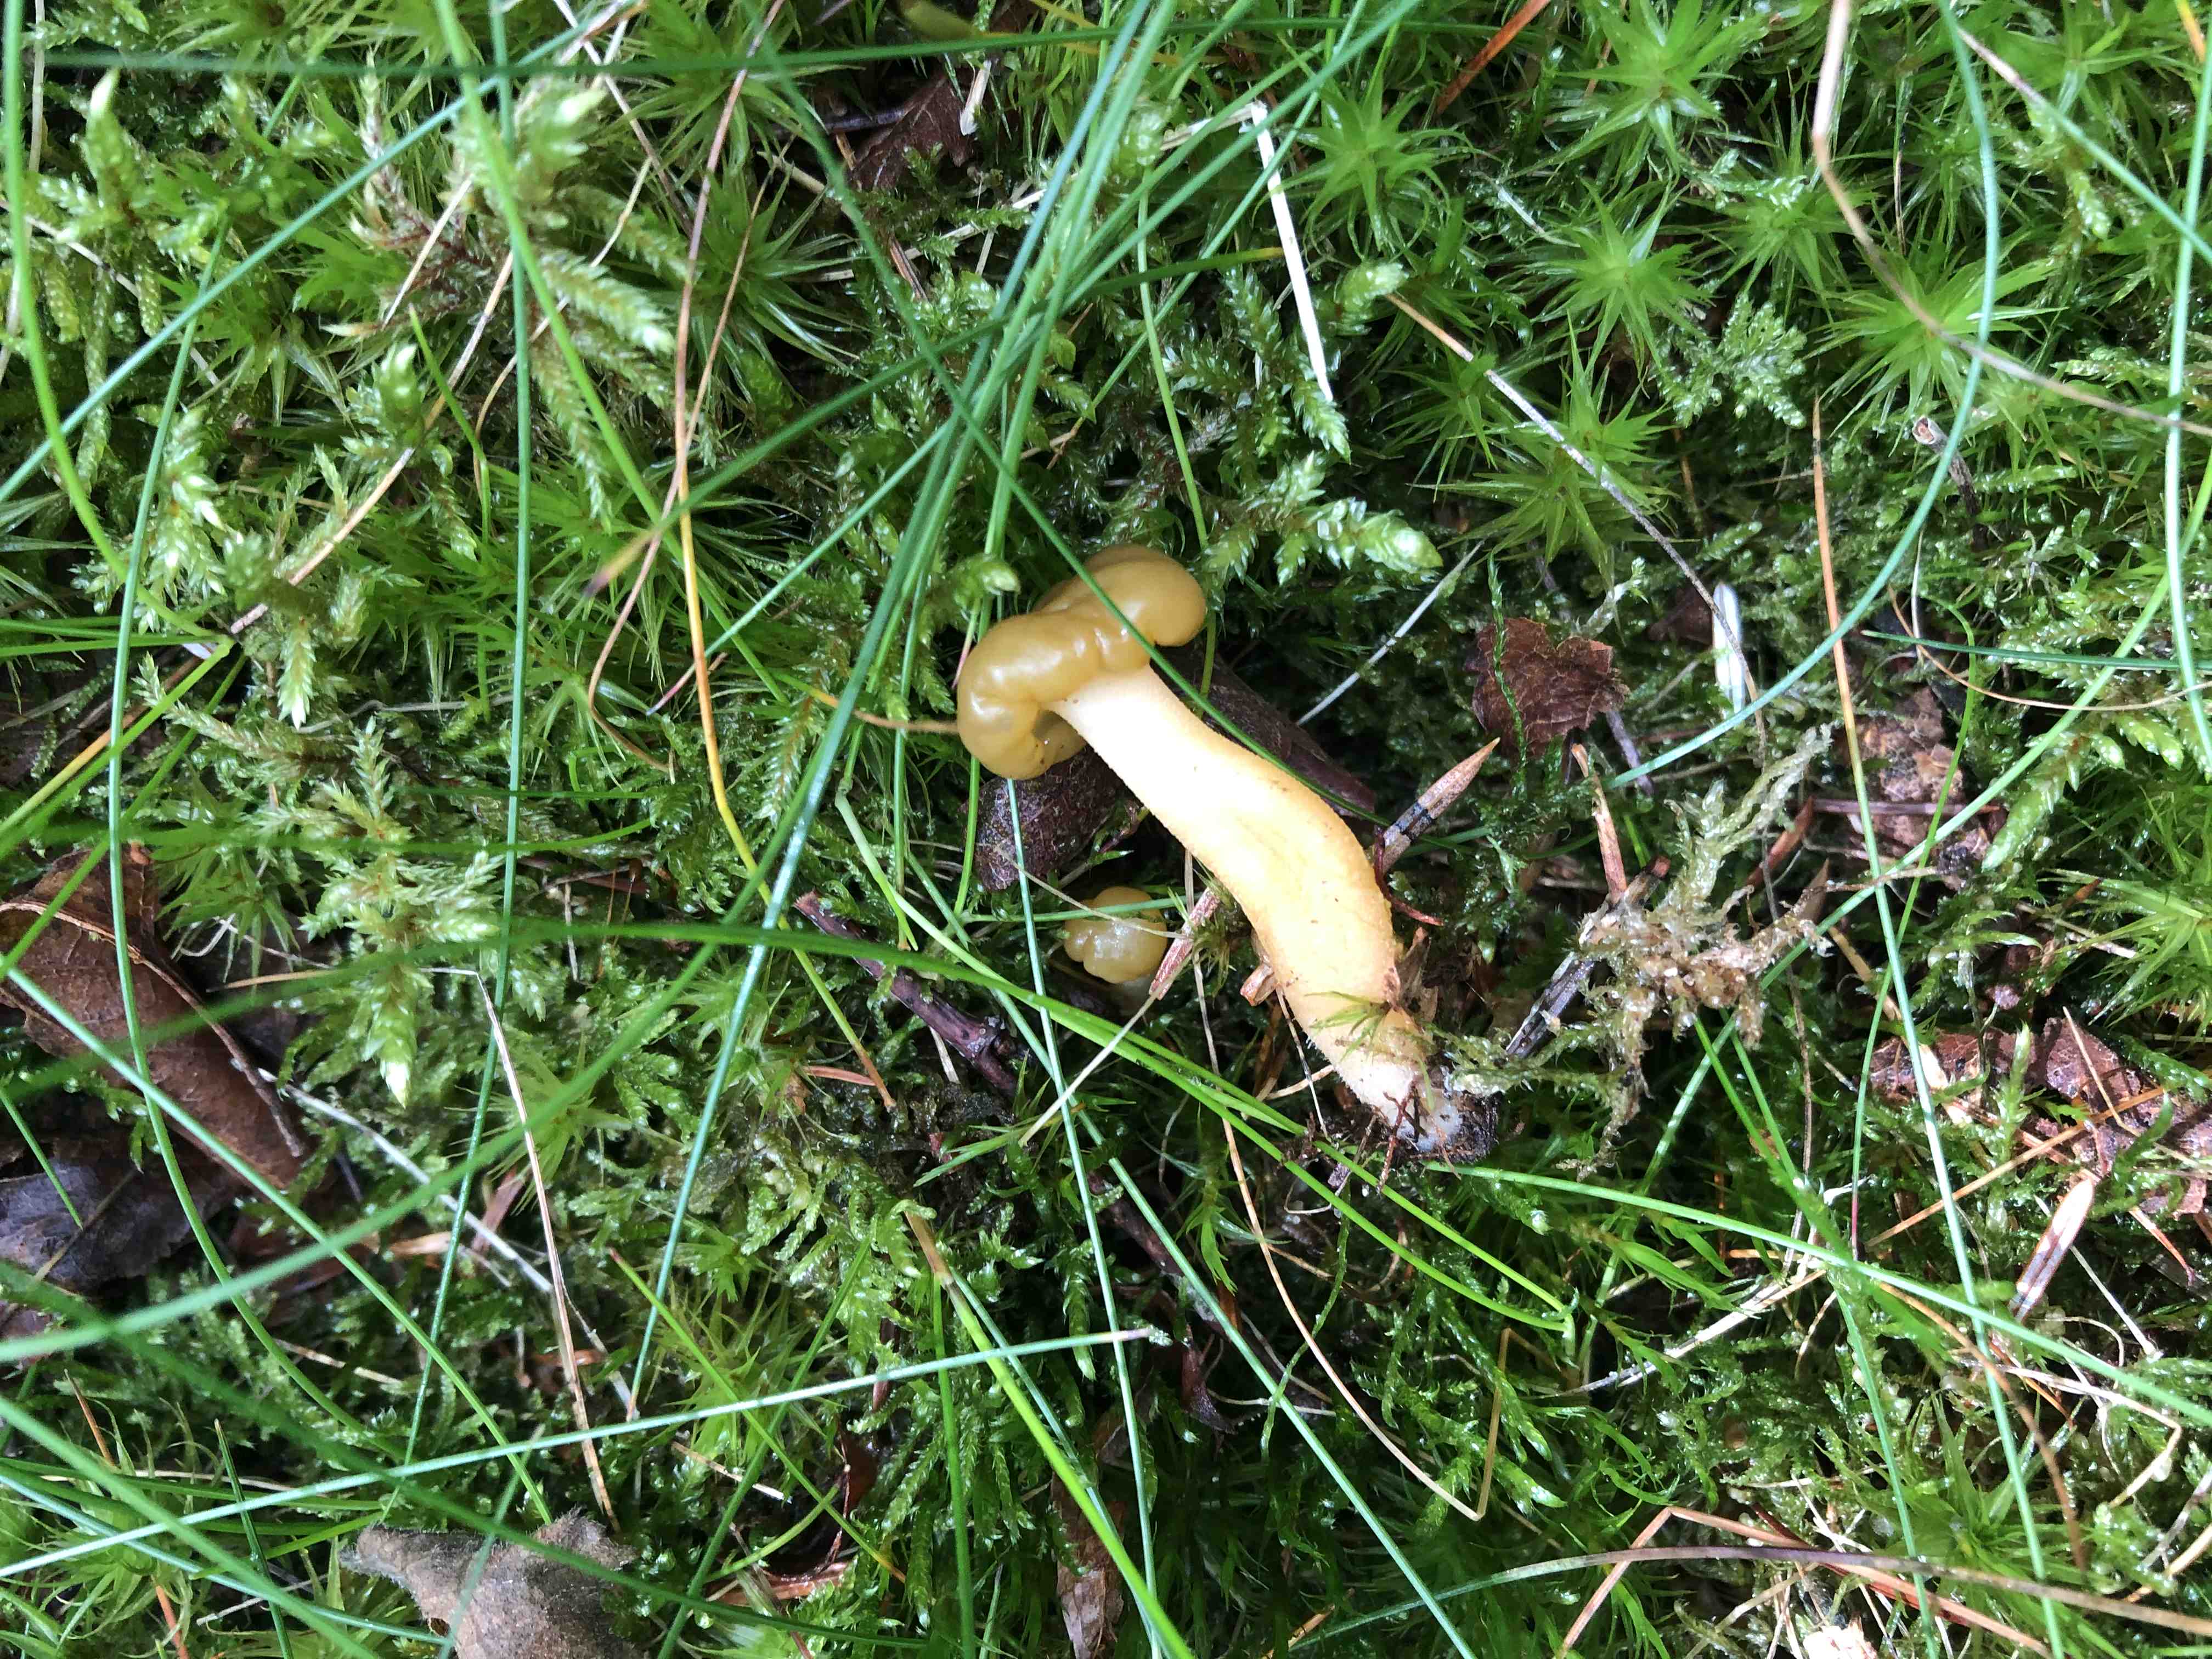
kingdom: Fungi
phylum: Ascomycota
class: Leotiomycetes
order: Leotiales
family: Leotiaceae
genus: Leotia
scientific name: Leotia lubrica
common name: ravsvamp
